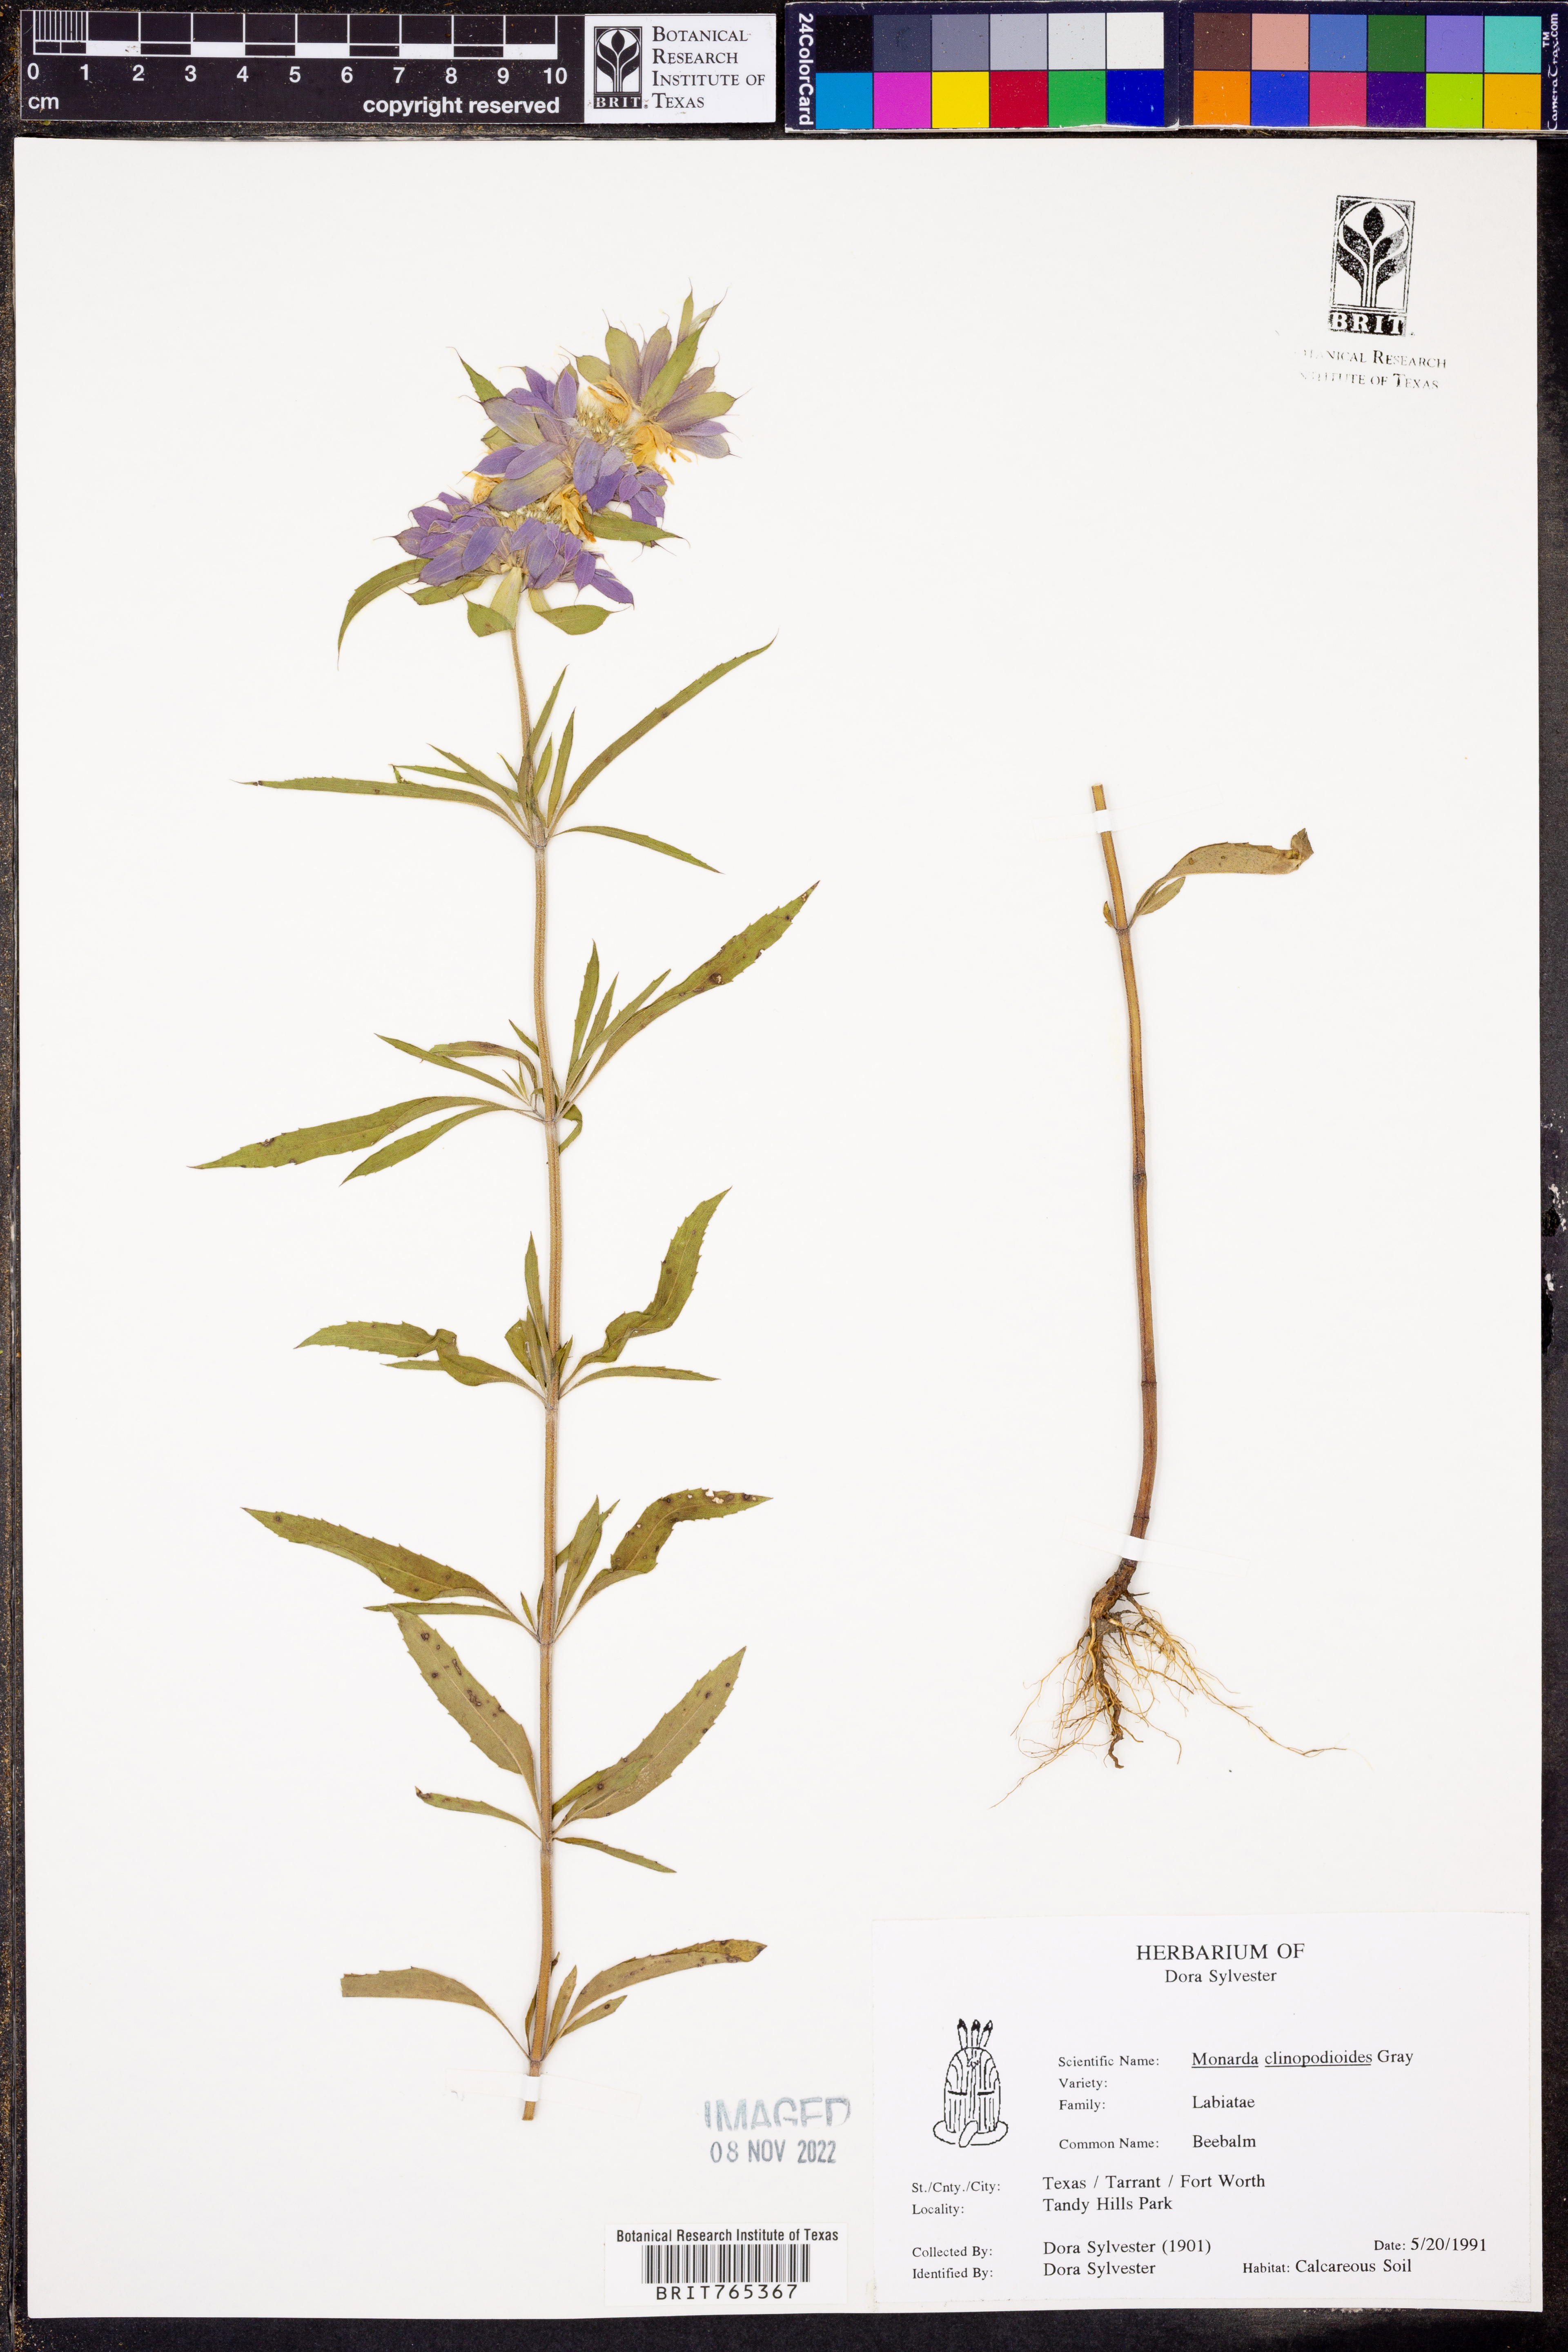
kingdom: Plantae
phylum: Tracheophyta
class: Magnoliopsida
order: Lamiales
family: Lamiaceae
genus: Monarda
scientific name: Monarda clinopodioides
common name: Basil beebalm
